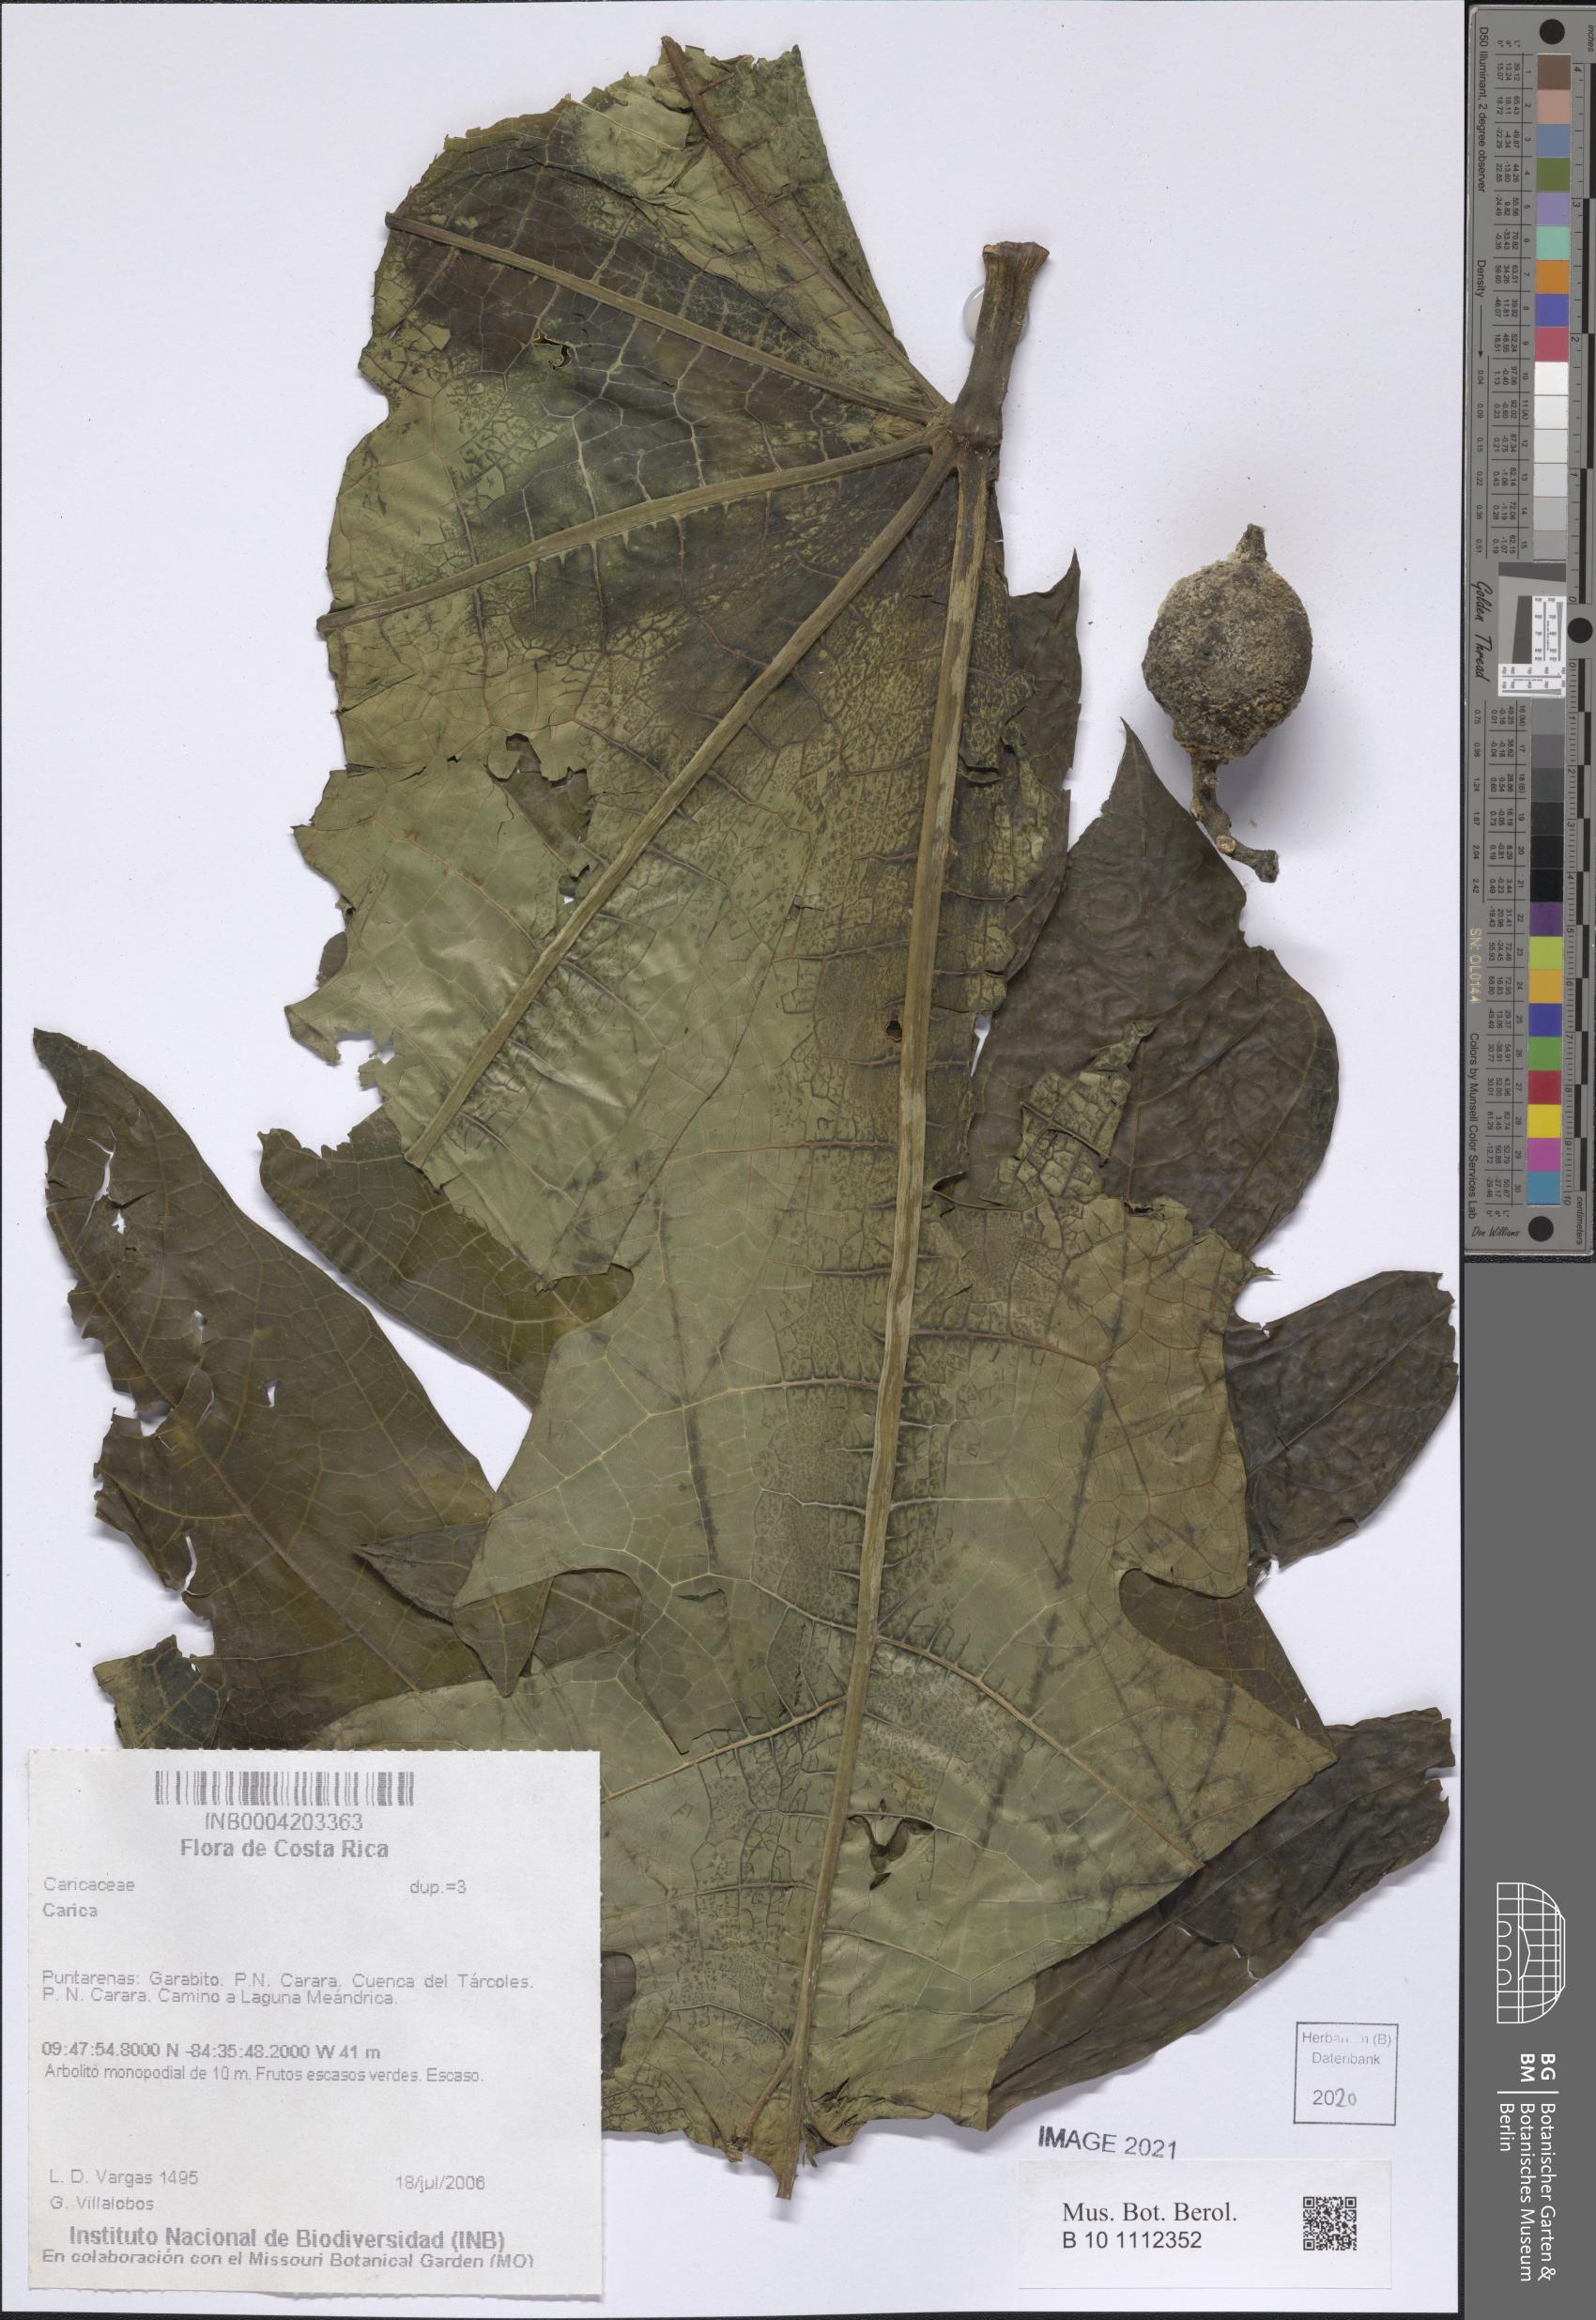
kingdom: Plantae
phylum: Tracheophyta
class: Magnoliopsida
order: Brassicales
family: Caricaceae
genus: Carica
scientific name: Carica
